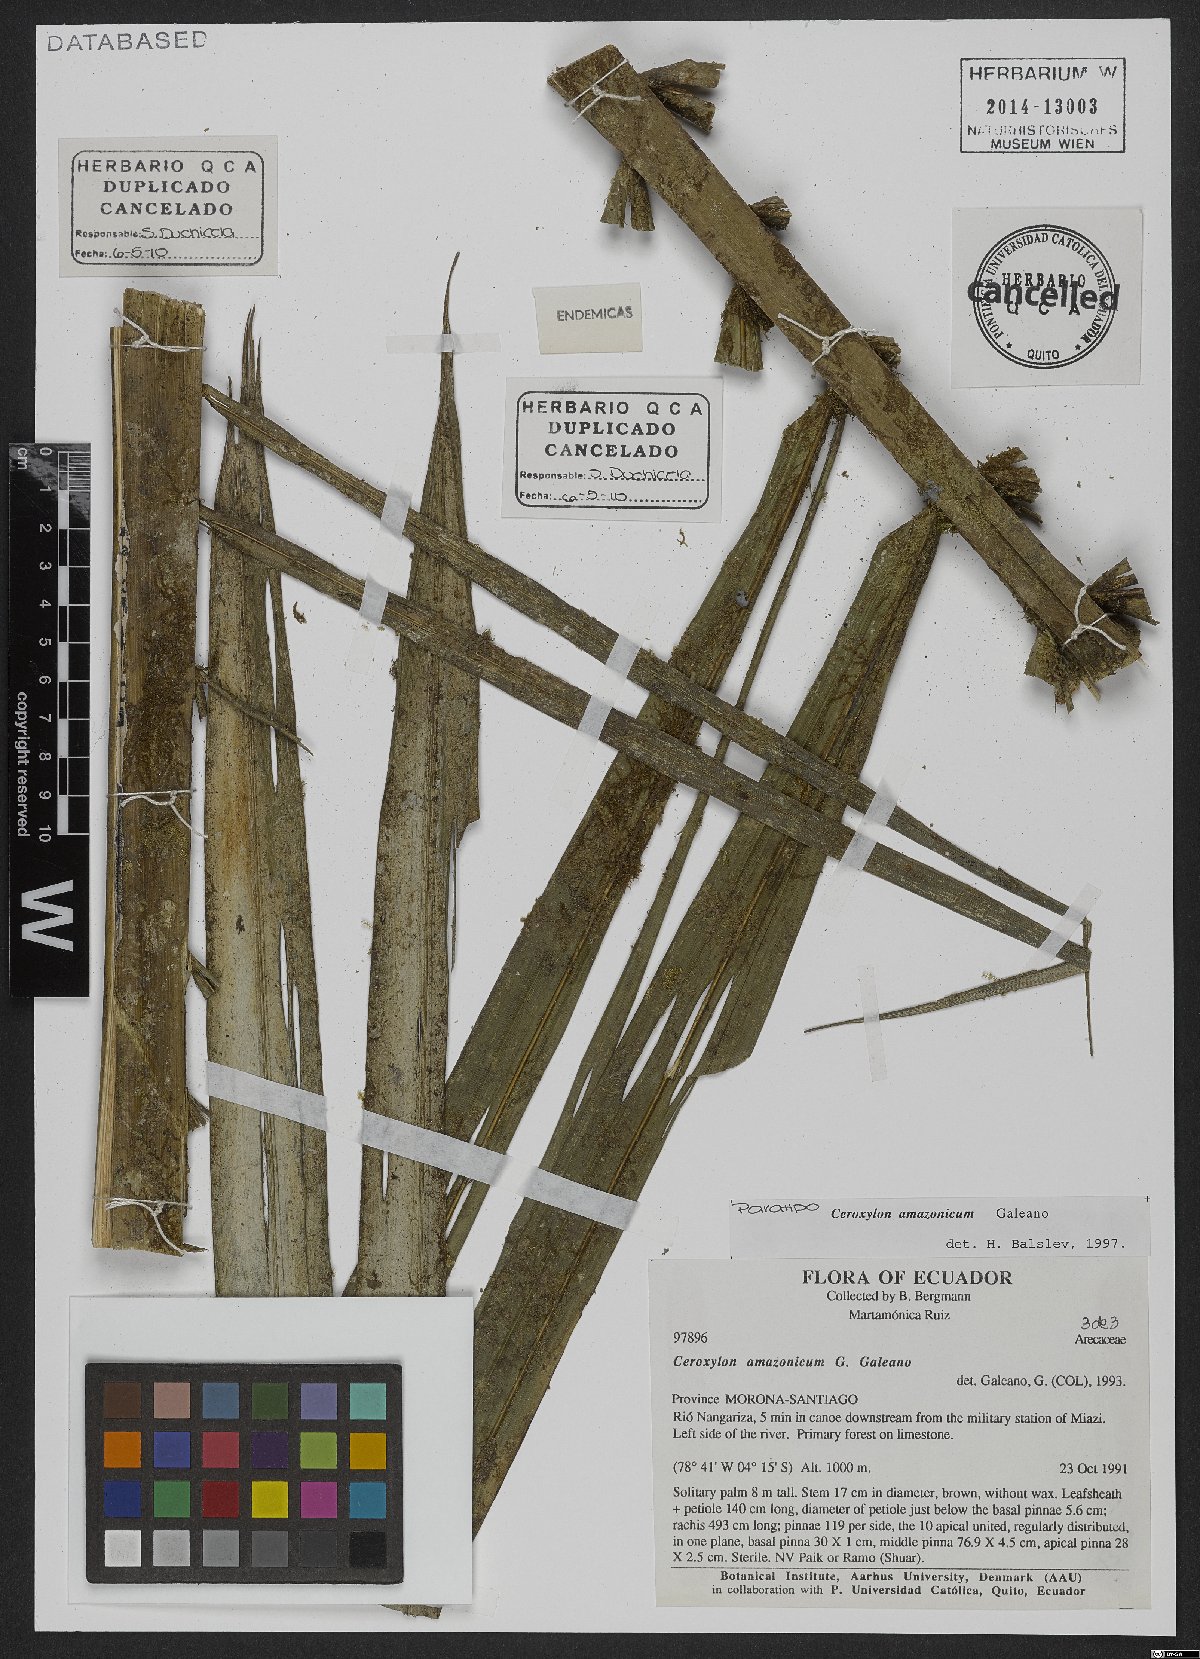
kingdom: Plantae
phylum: Tracheophyta
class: Liliopsida
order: Arecales
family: Arecaceae
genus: Ceroxylon
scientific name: Ceroxylon amazonicum
